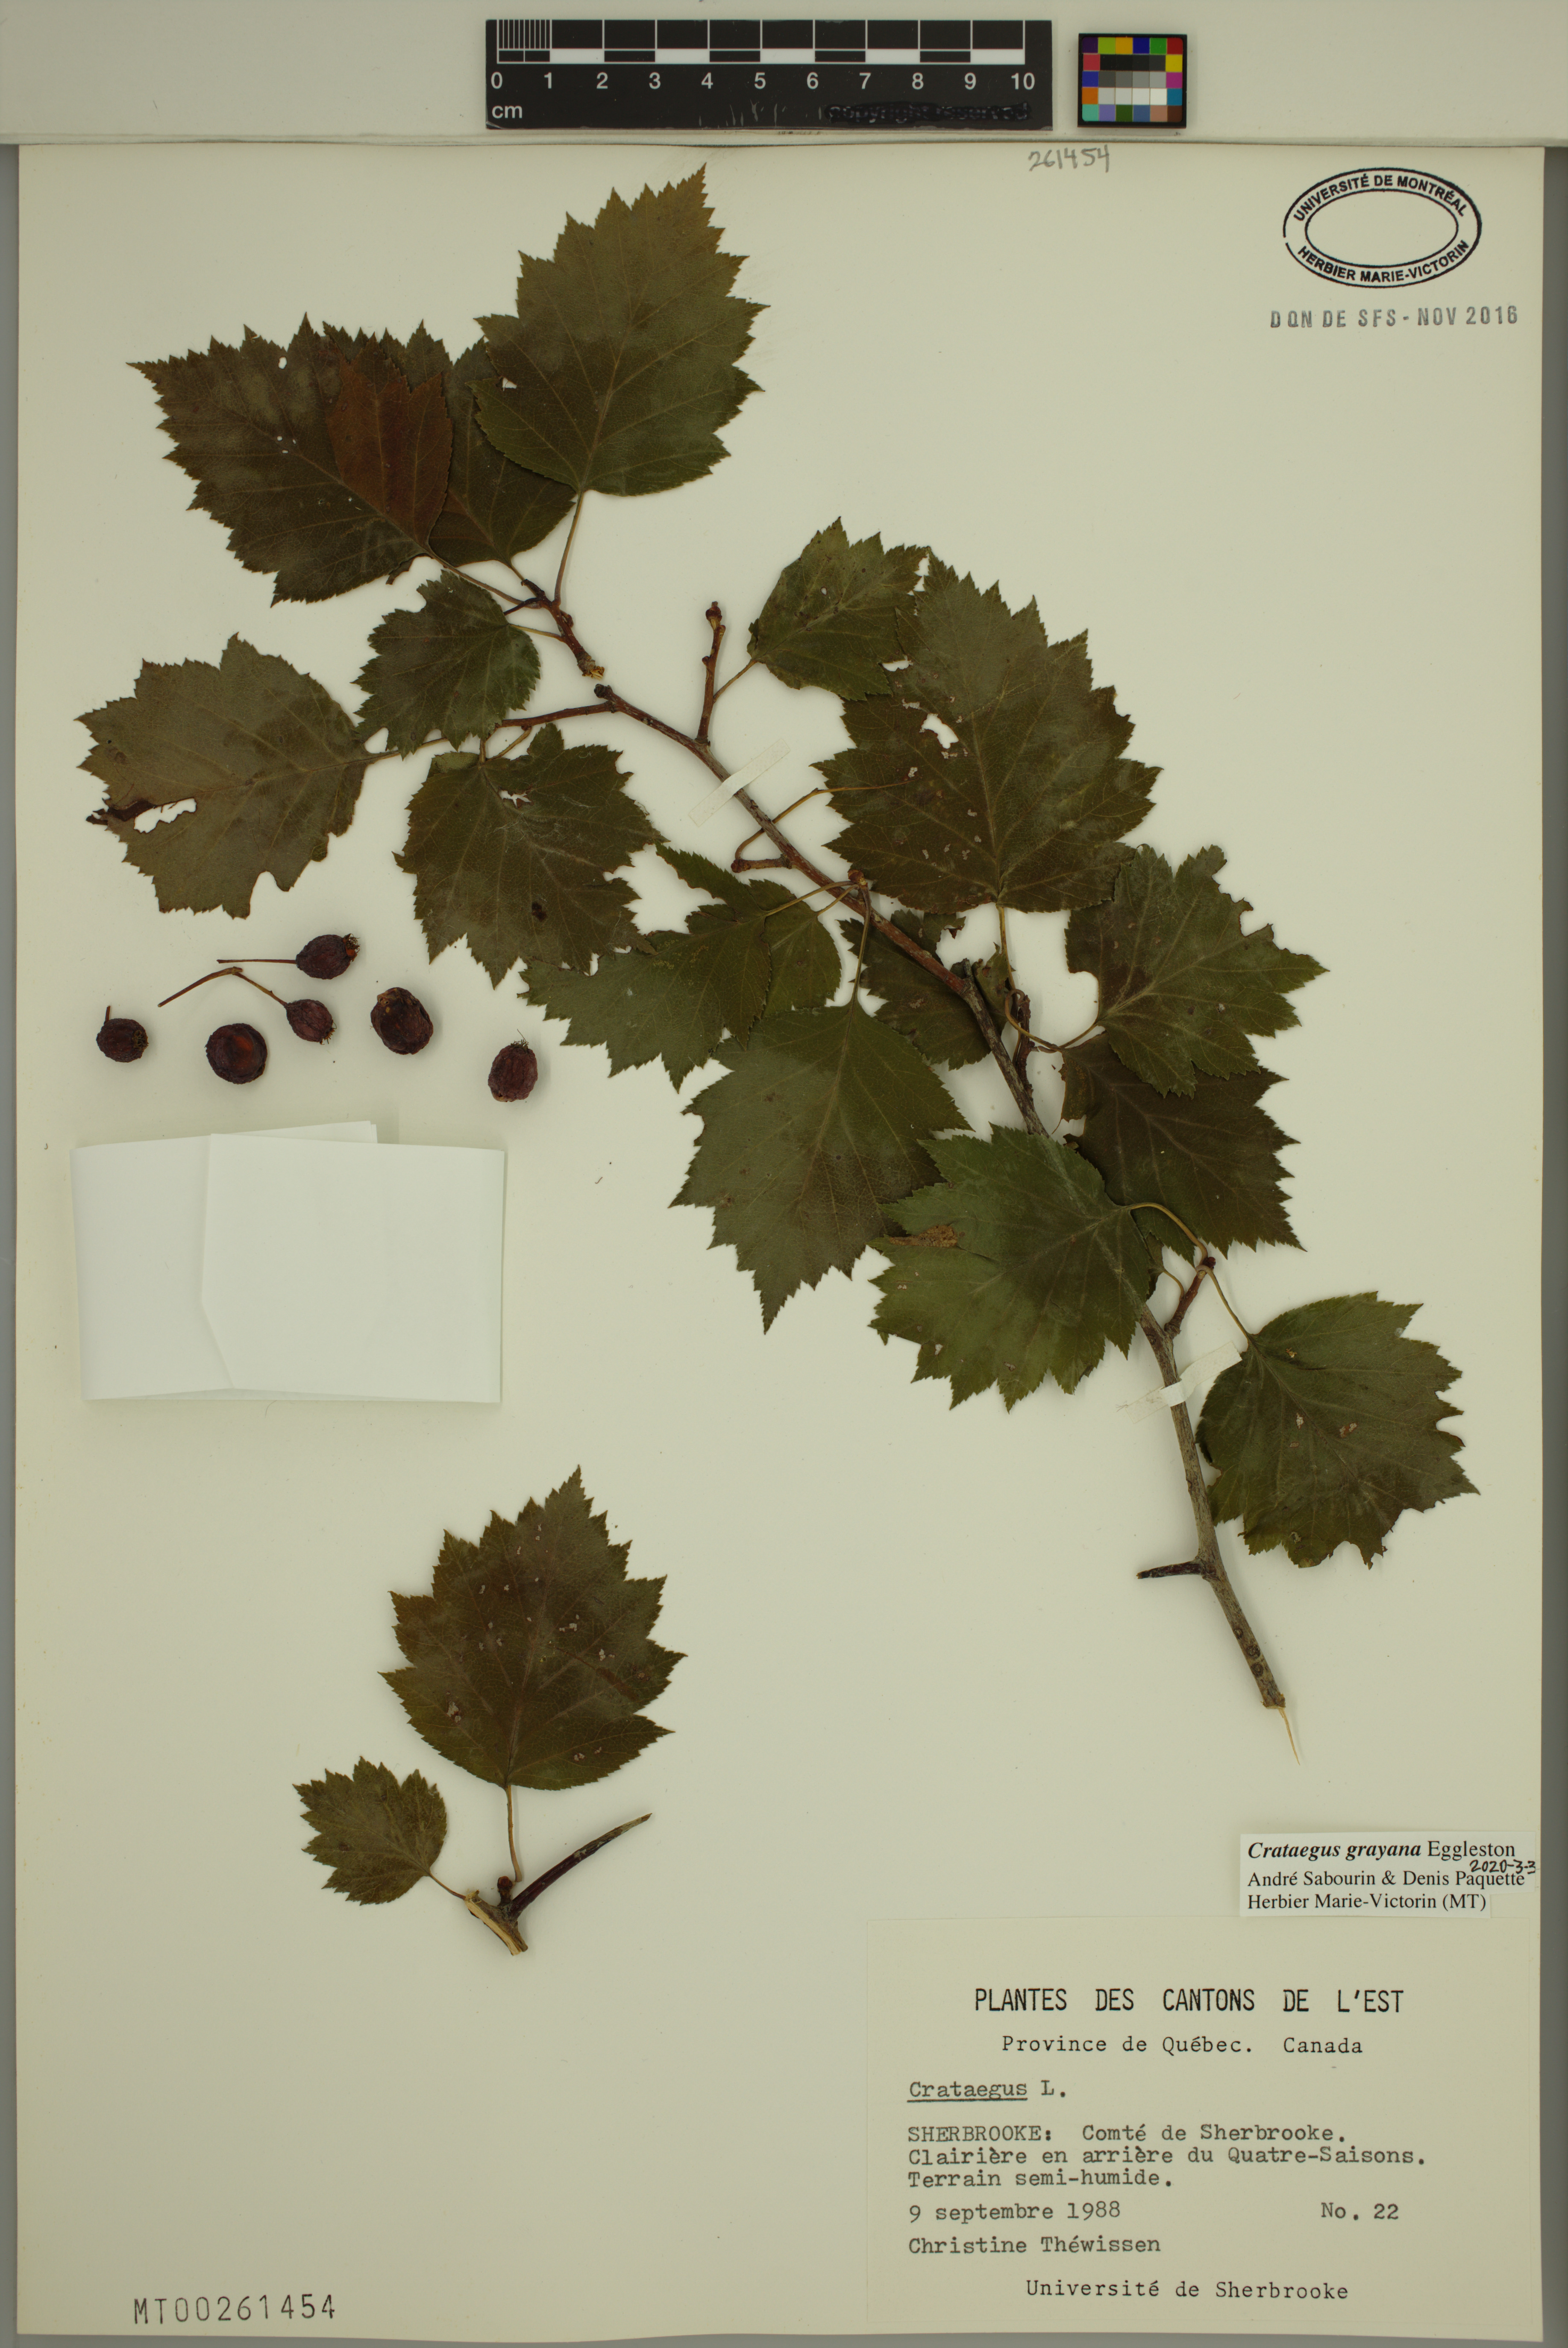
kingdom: Plantae
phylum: Tracheophyta
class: Magnoliopsida
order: Rosales
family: Rosaceae
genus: Crataegus
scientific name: Crataegus schuettei
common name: Schuette's hawthorn
